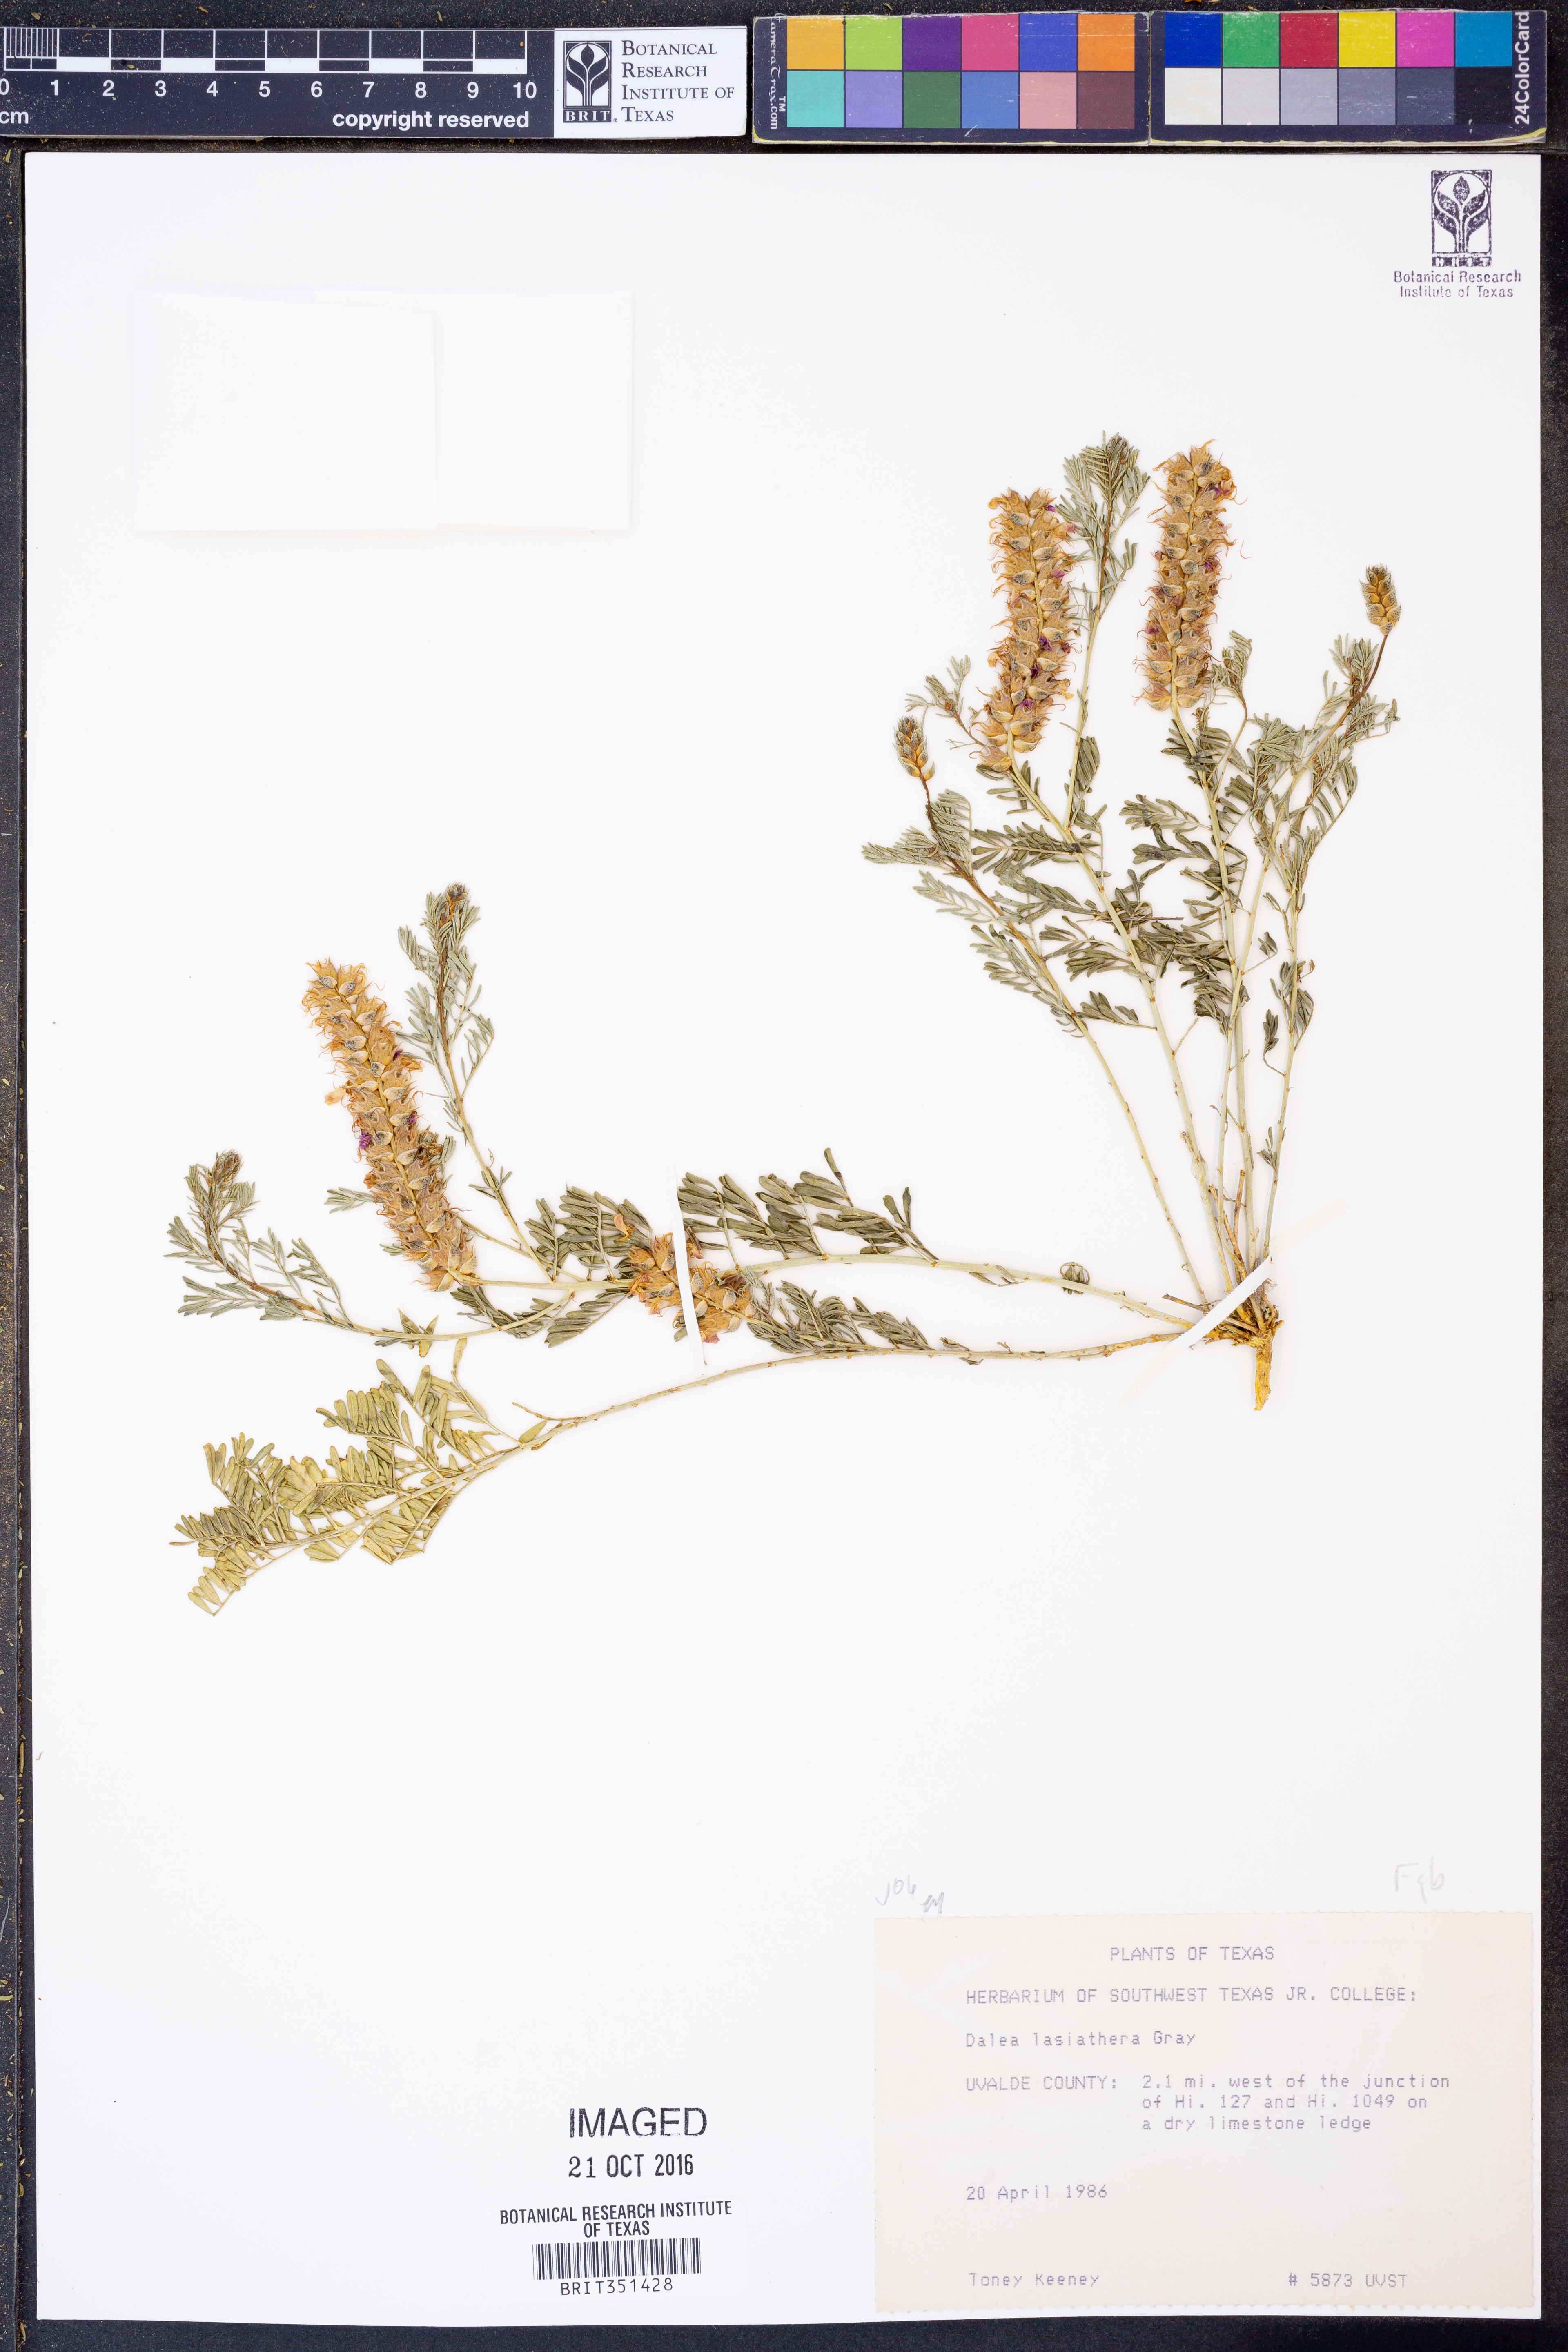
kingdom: Plantae
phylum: Tracheophyta
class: Magnoliopsida
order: Fabales
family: Fabaceae
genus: Dalea
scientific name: Dalea lasiathera
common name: Purple prairie-clover
